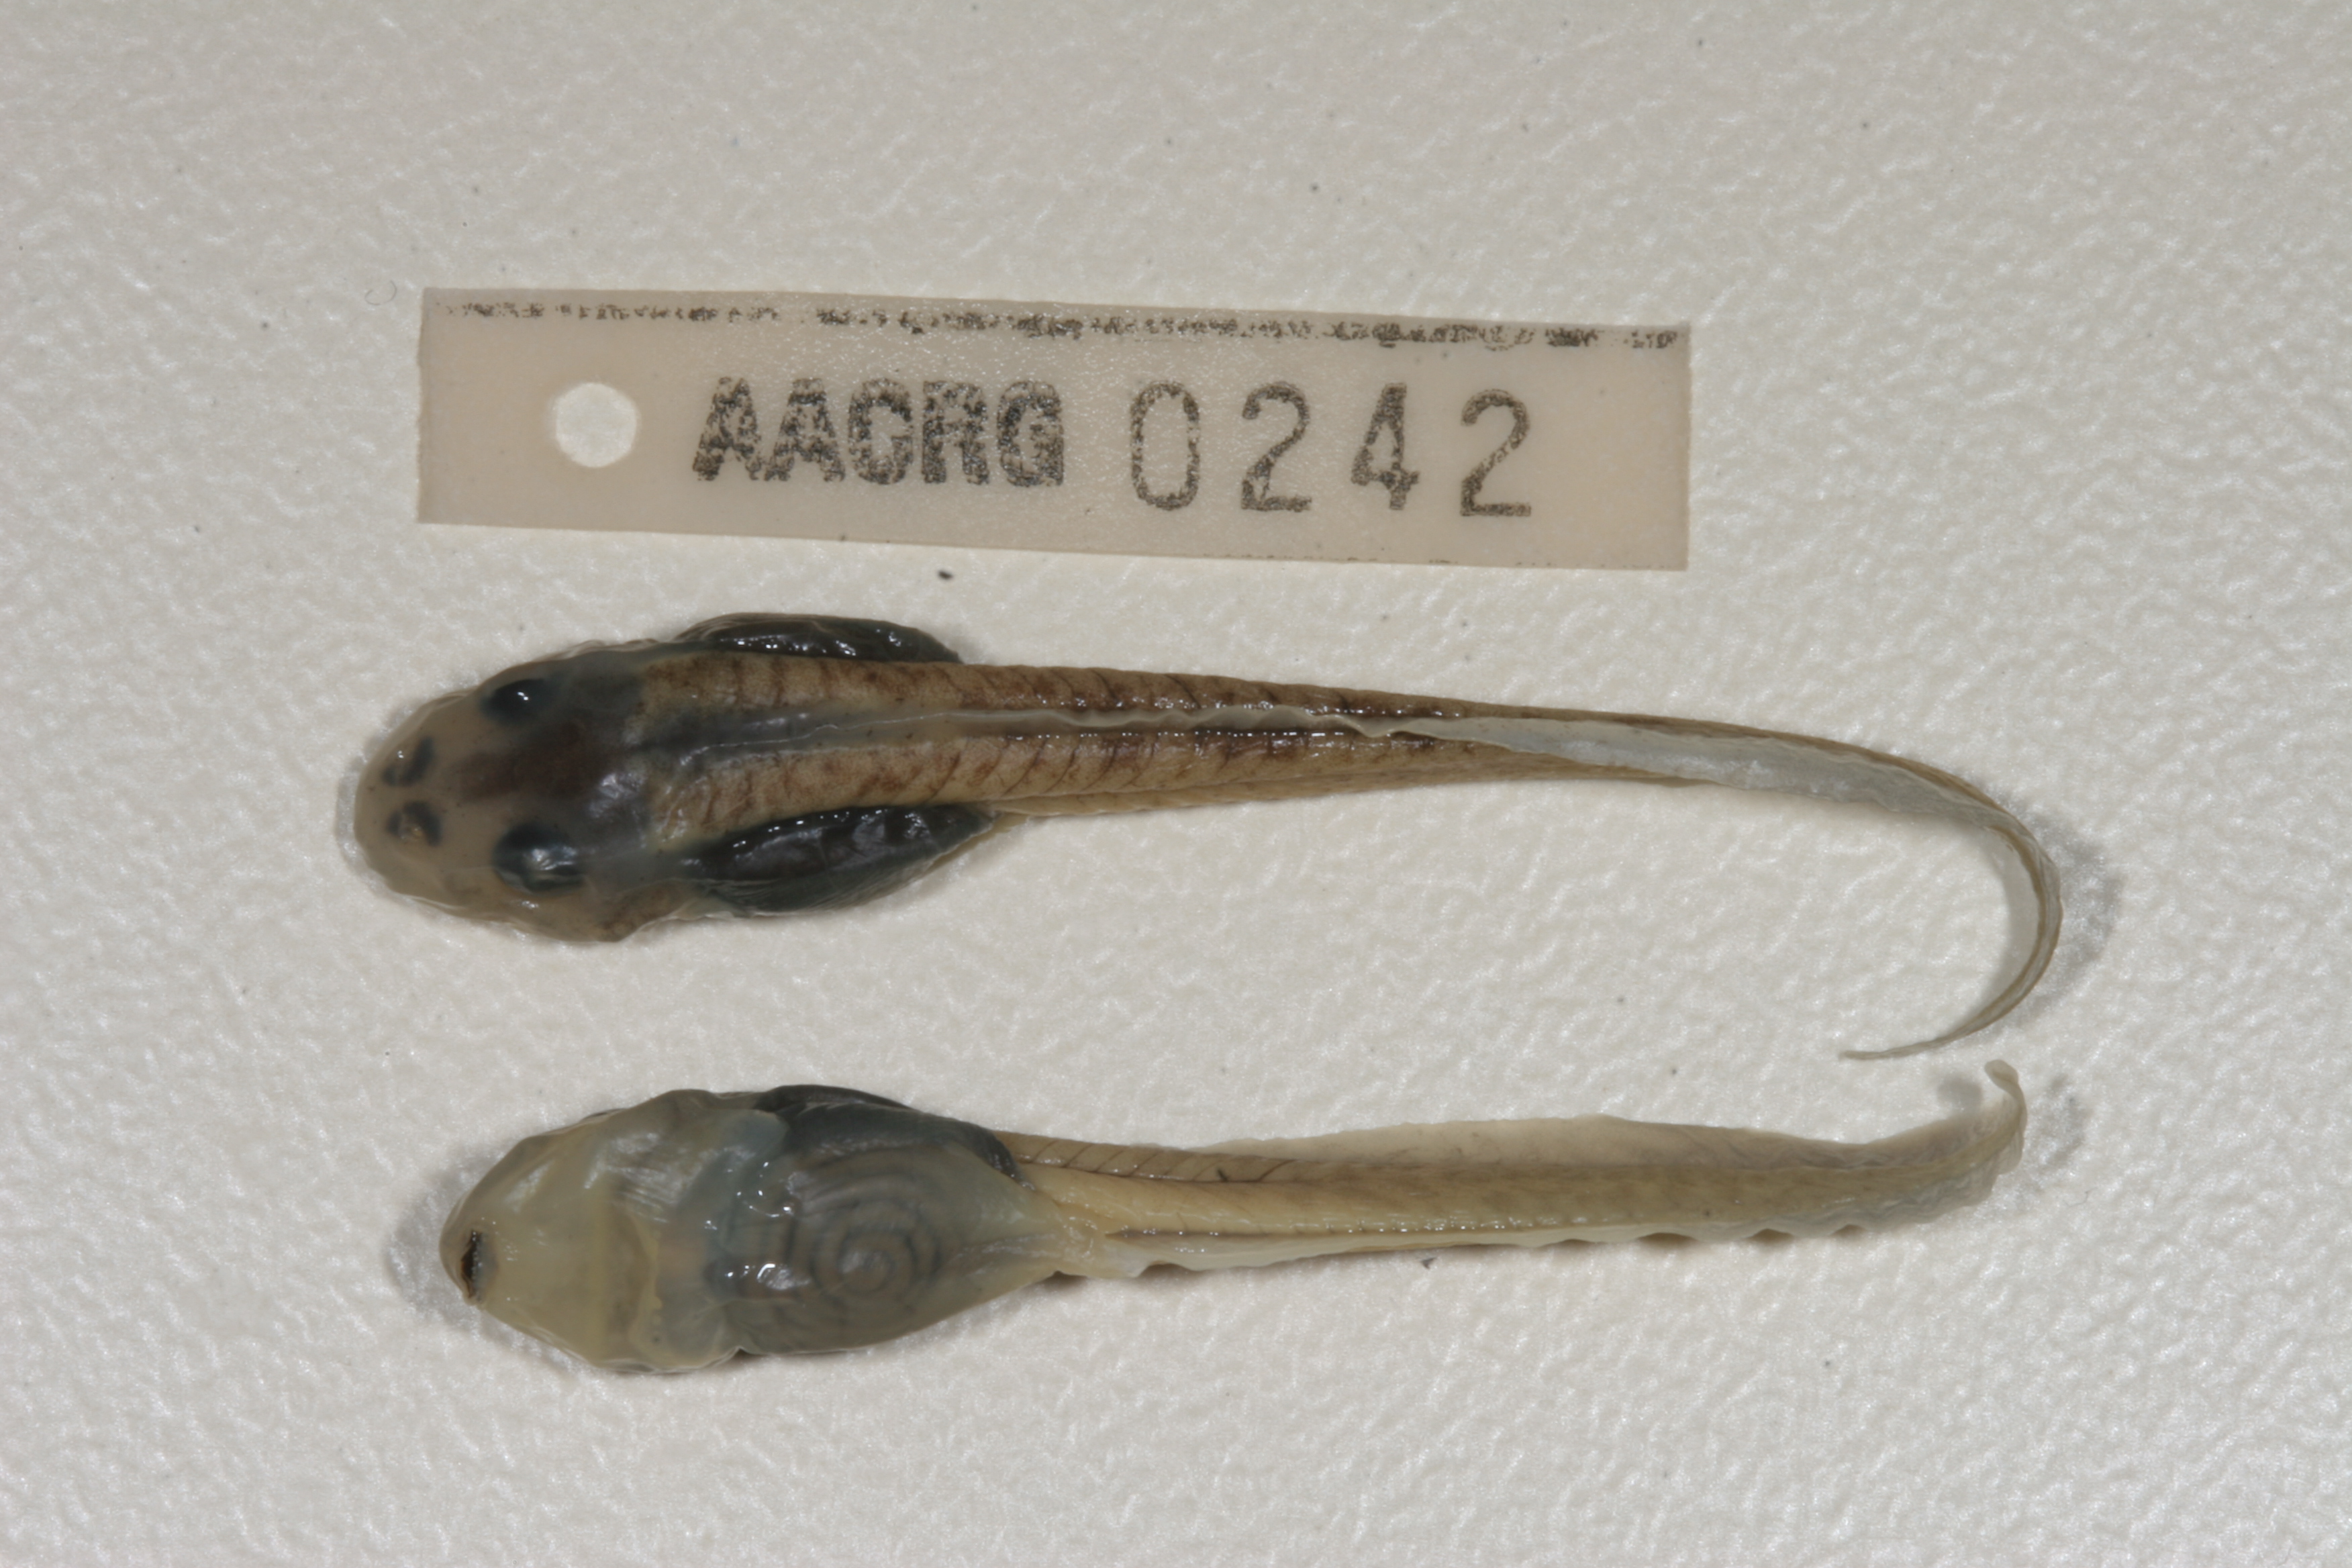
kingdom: Animalia
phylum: Chordata
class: Amphibia
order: Anura
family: Pyxicephalidae
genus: Amietia
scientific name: Amietia angolensis
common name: Dusky-throated frog
